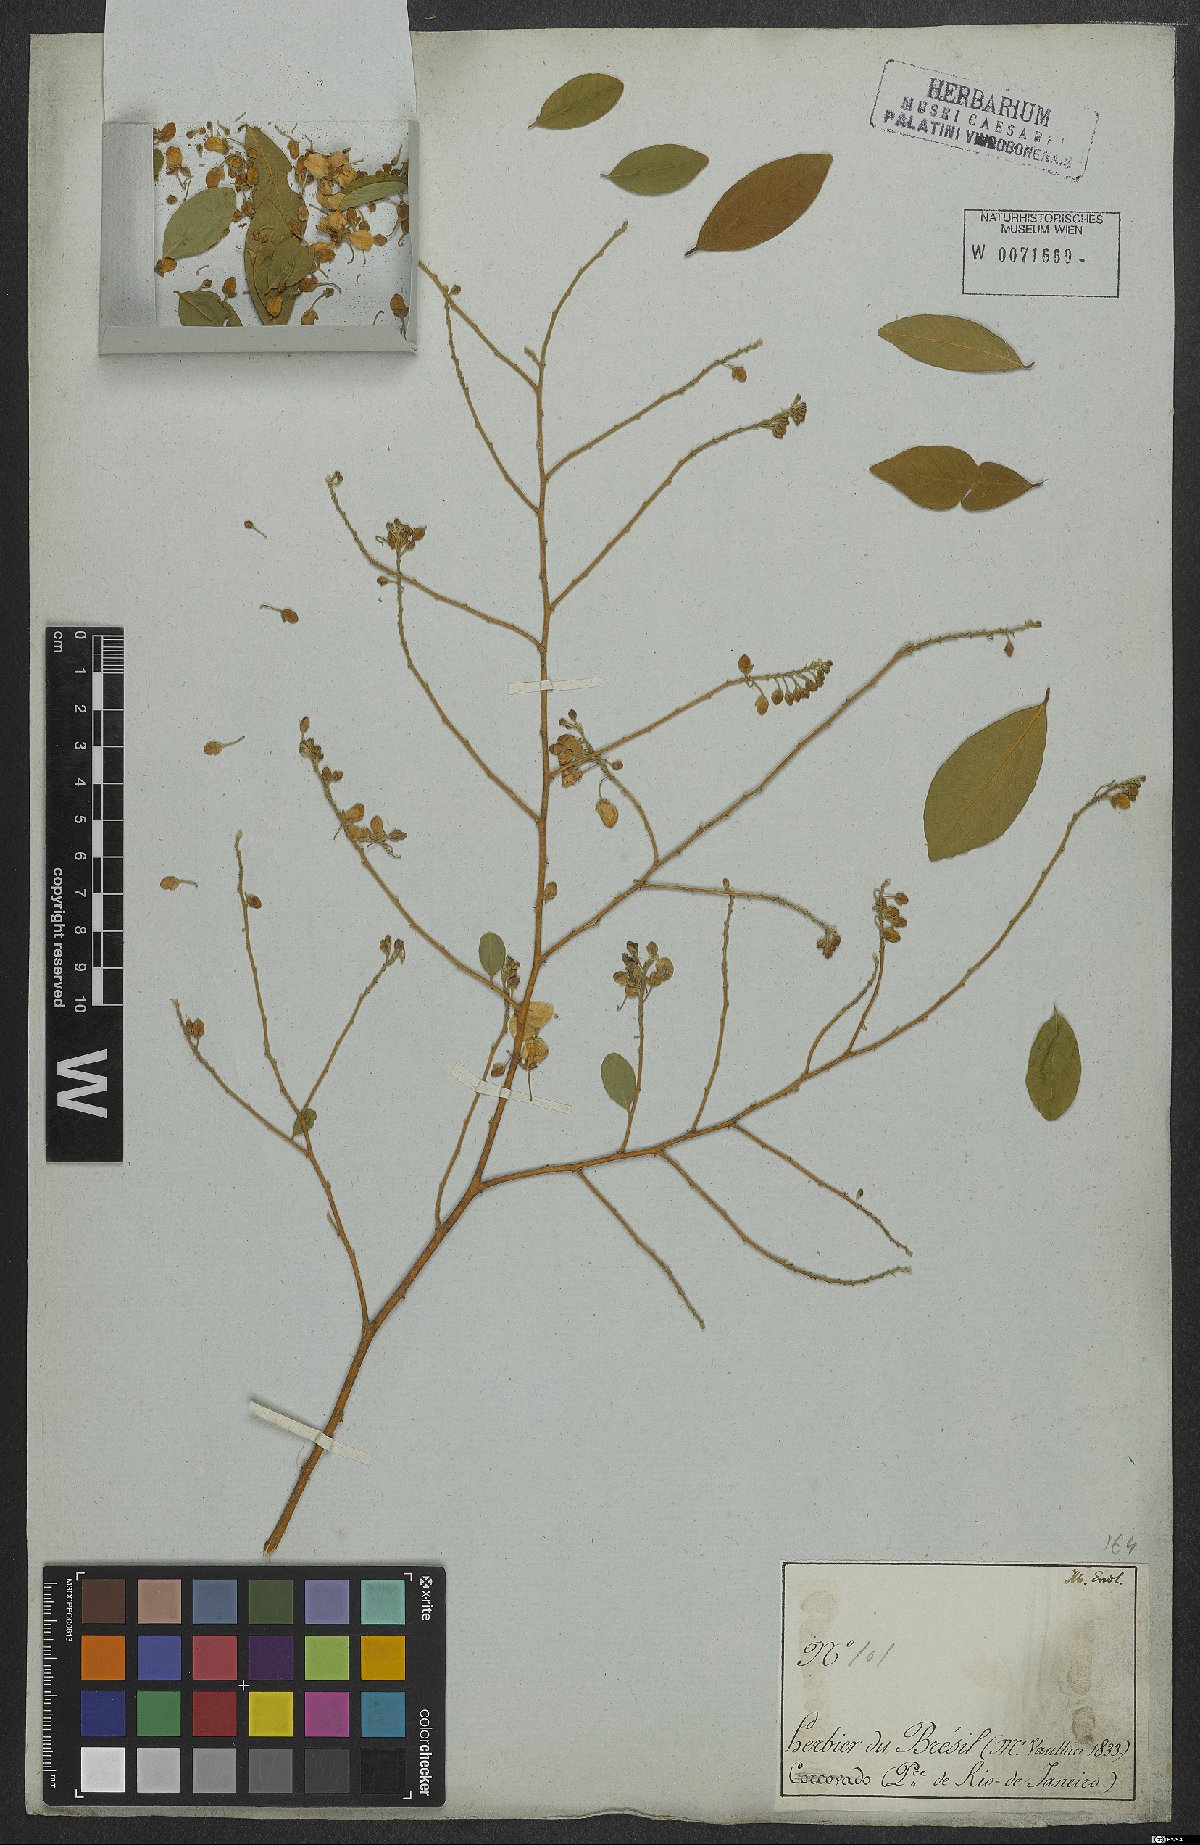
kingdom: Plantae
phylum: Tracheophyta
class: Magnoliopsida
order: Fabales
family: Polygalaceae
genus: Securidaca
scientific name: Securidaca lanceolata
